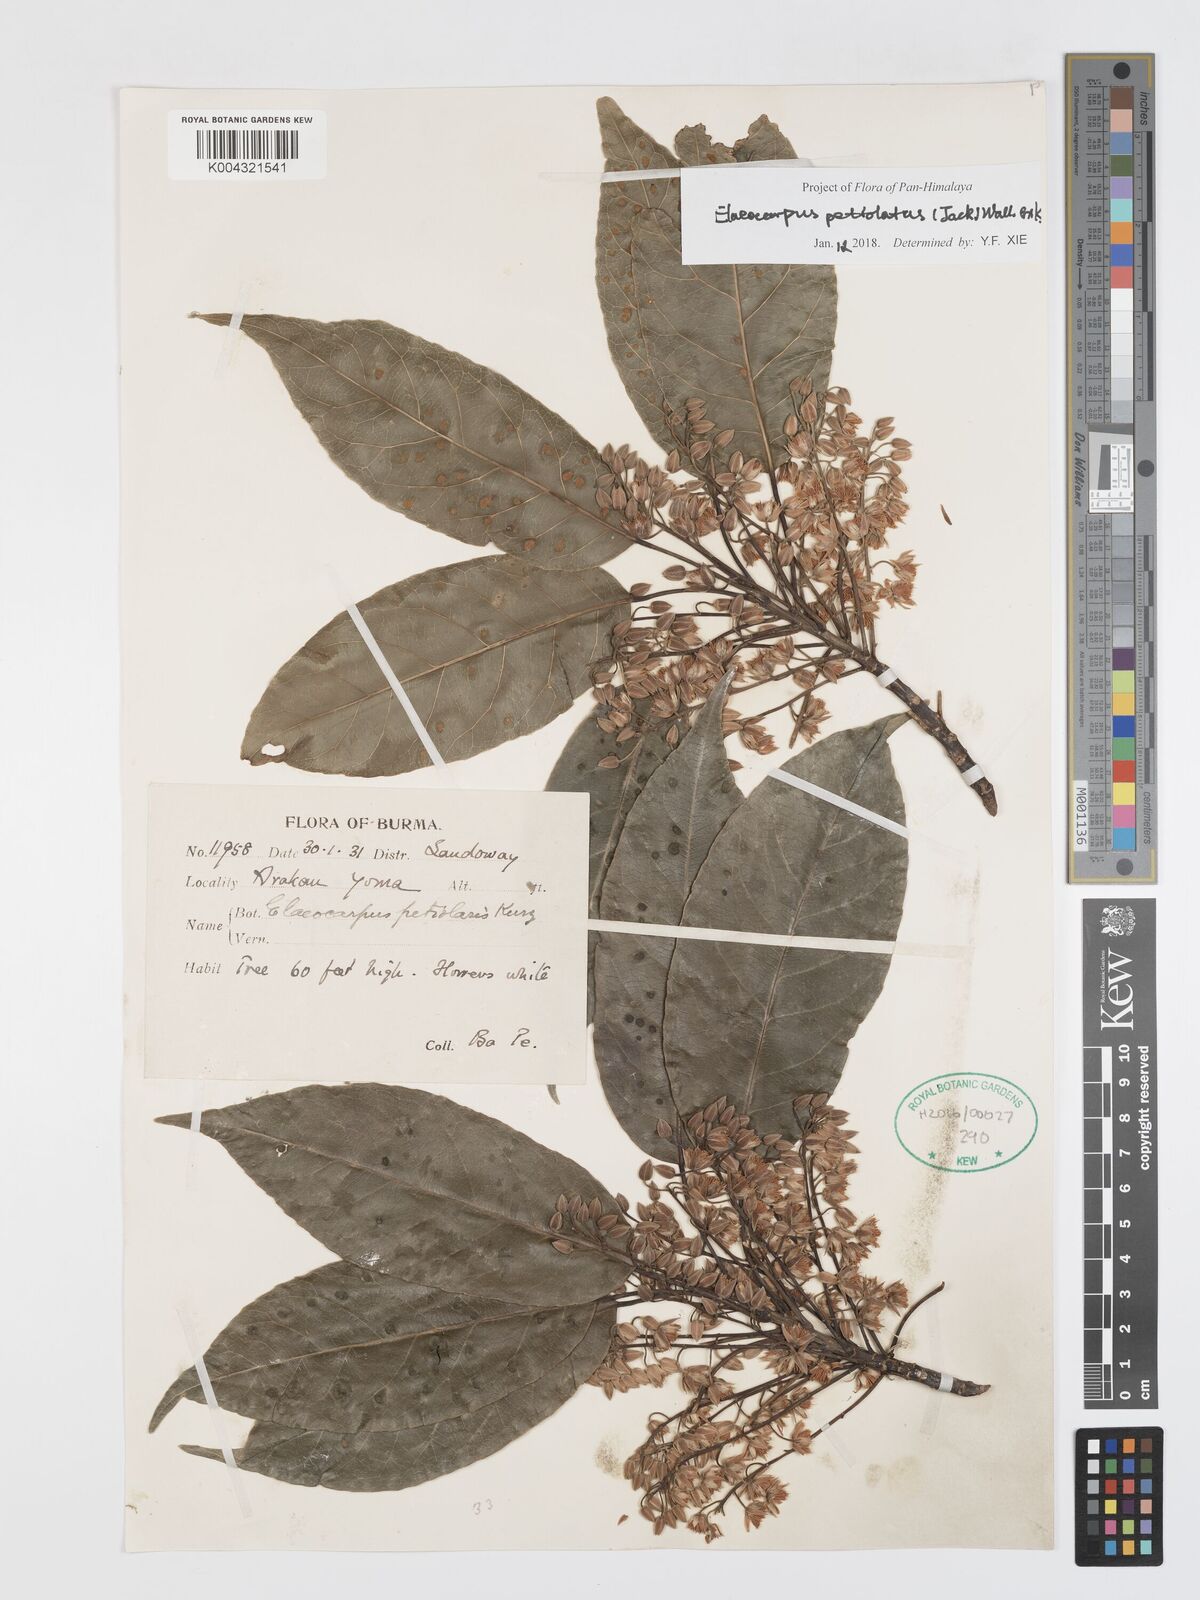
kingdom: Plantae
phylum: Tracheophyta
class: Magnoliopsida
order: Oxalidales
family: Elaeocarpaceae
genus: Elaeocarpus
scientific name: Elaeocarpus petiolatus
